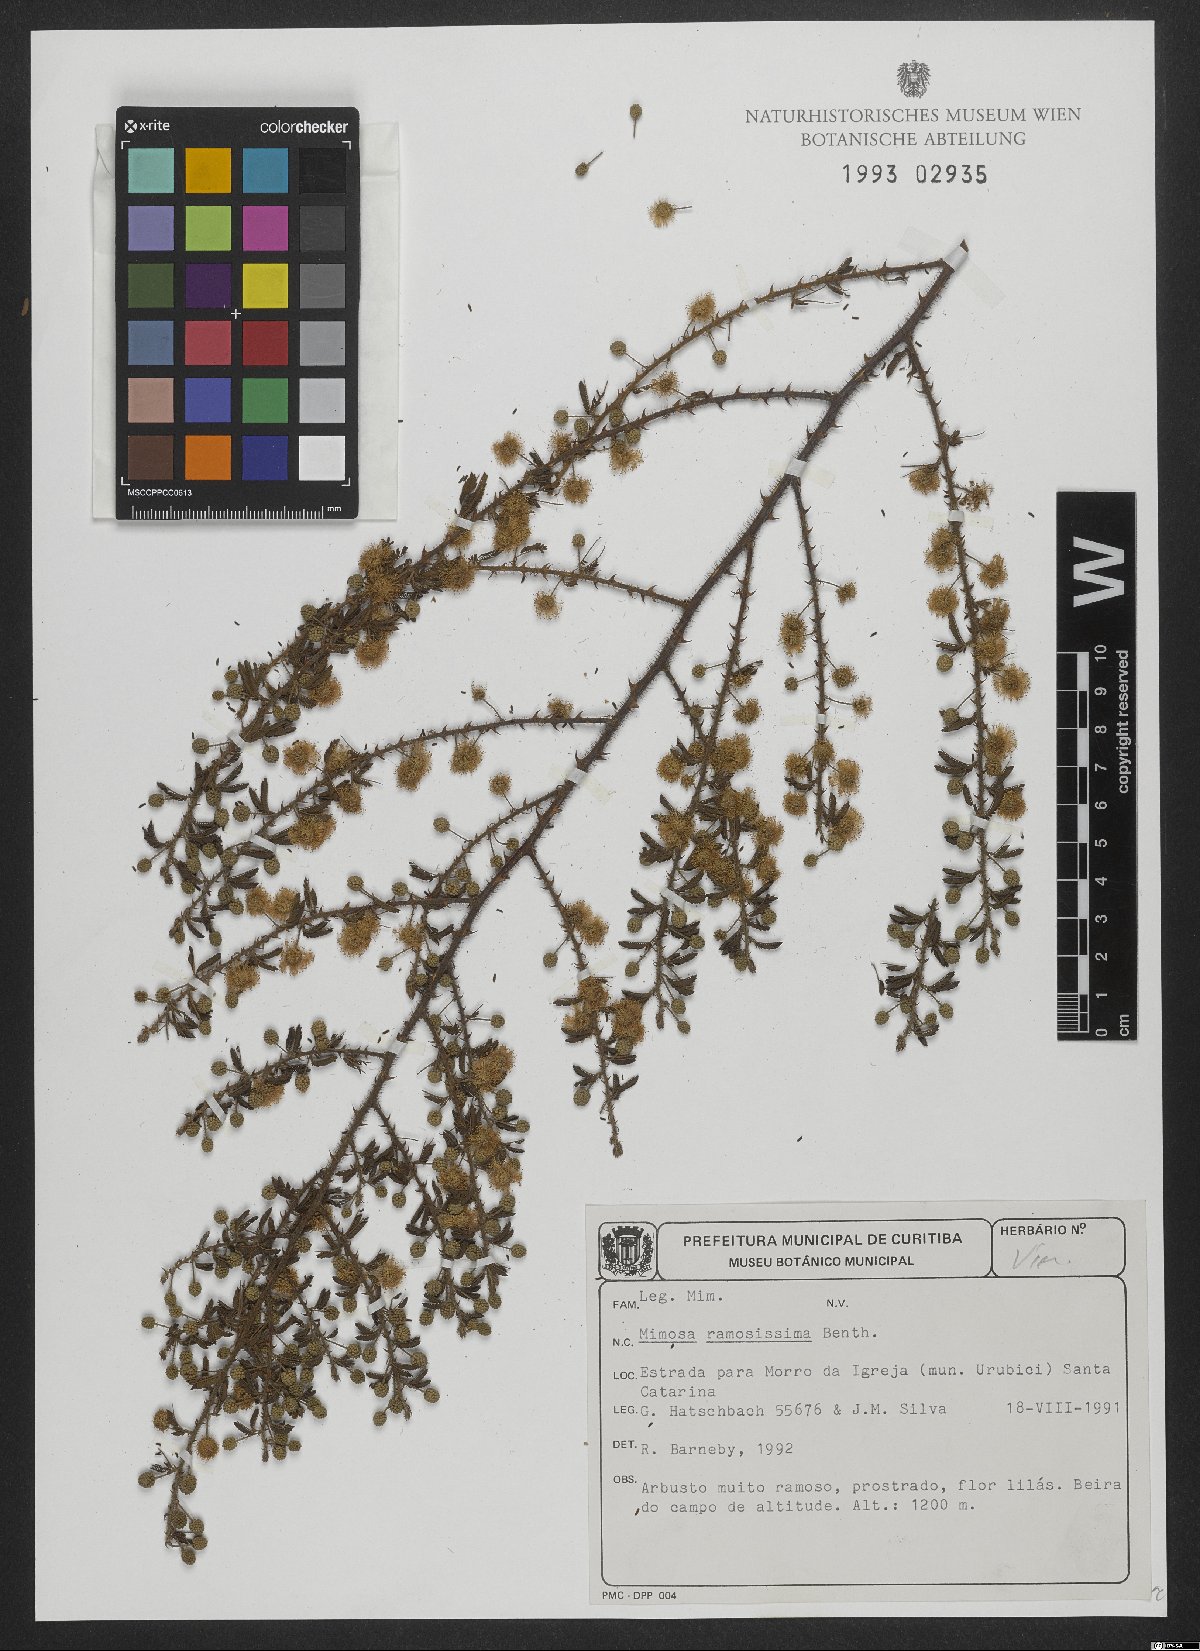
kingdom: Plantae
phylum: Tracheophyta
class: Magnoliopsida
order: Fabales
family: Fabaceae
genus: Mimosa
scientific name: Mimosa ramosissima
